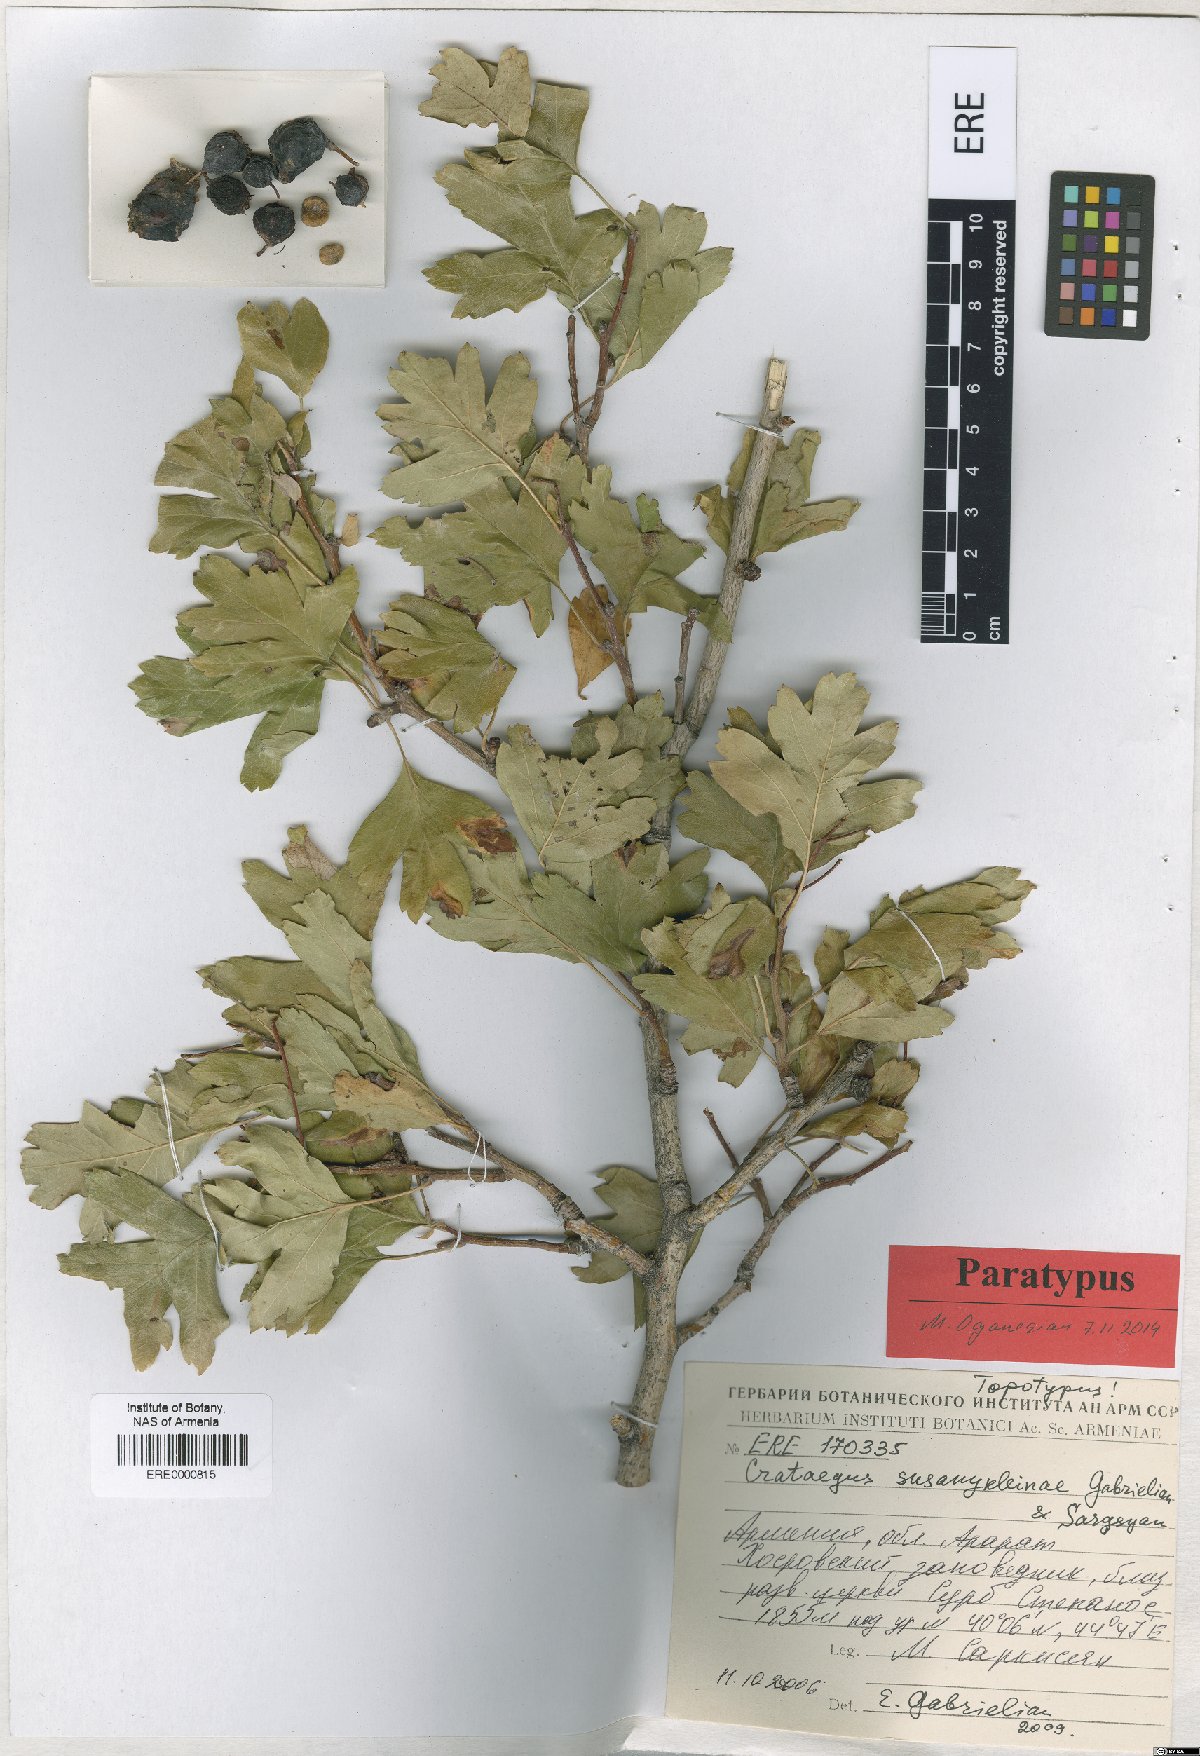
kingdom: Plantae
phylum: Tracheophyta
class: Magnoliopsida
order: Rosales
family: Rosaceae
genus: Crataegus
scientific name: Crataegus
